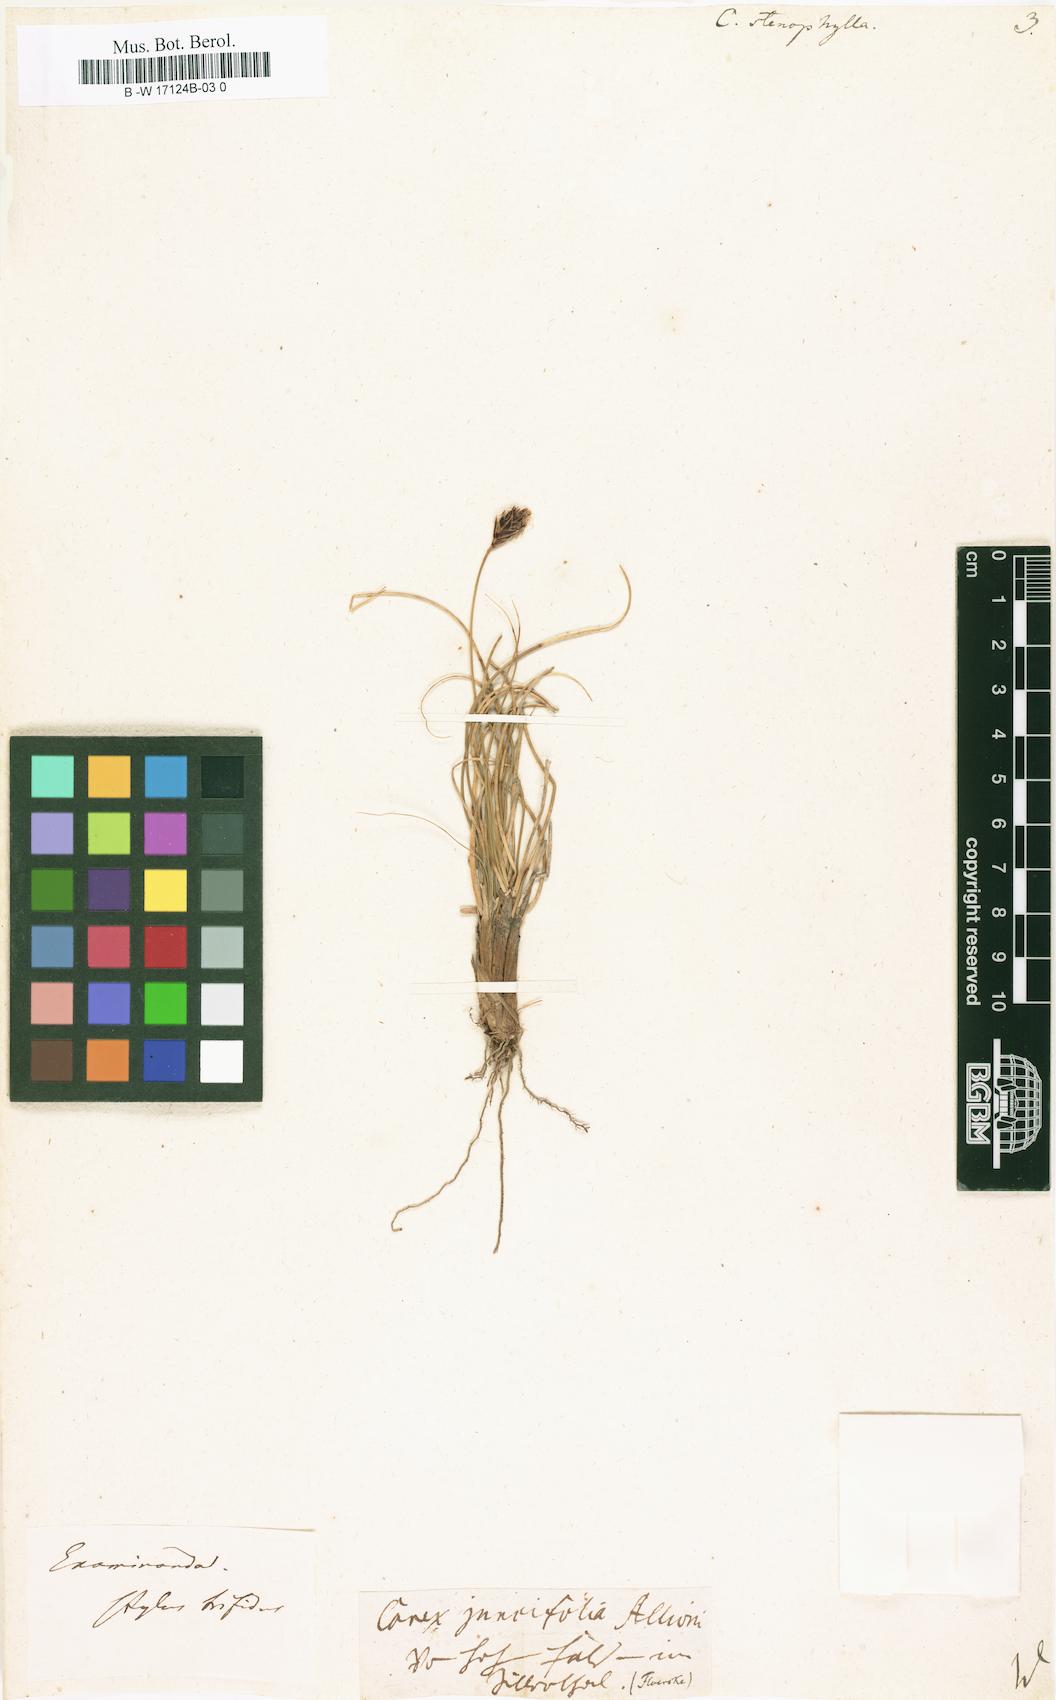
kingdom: Plantae
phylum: Tracheophyta
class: Liliopsida
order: Poales
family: Cyperaceae
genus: Carex
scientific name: Carex stenophylla
